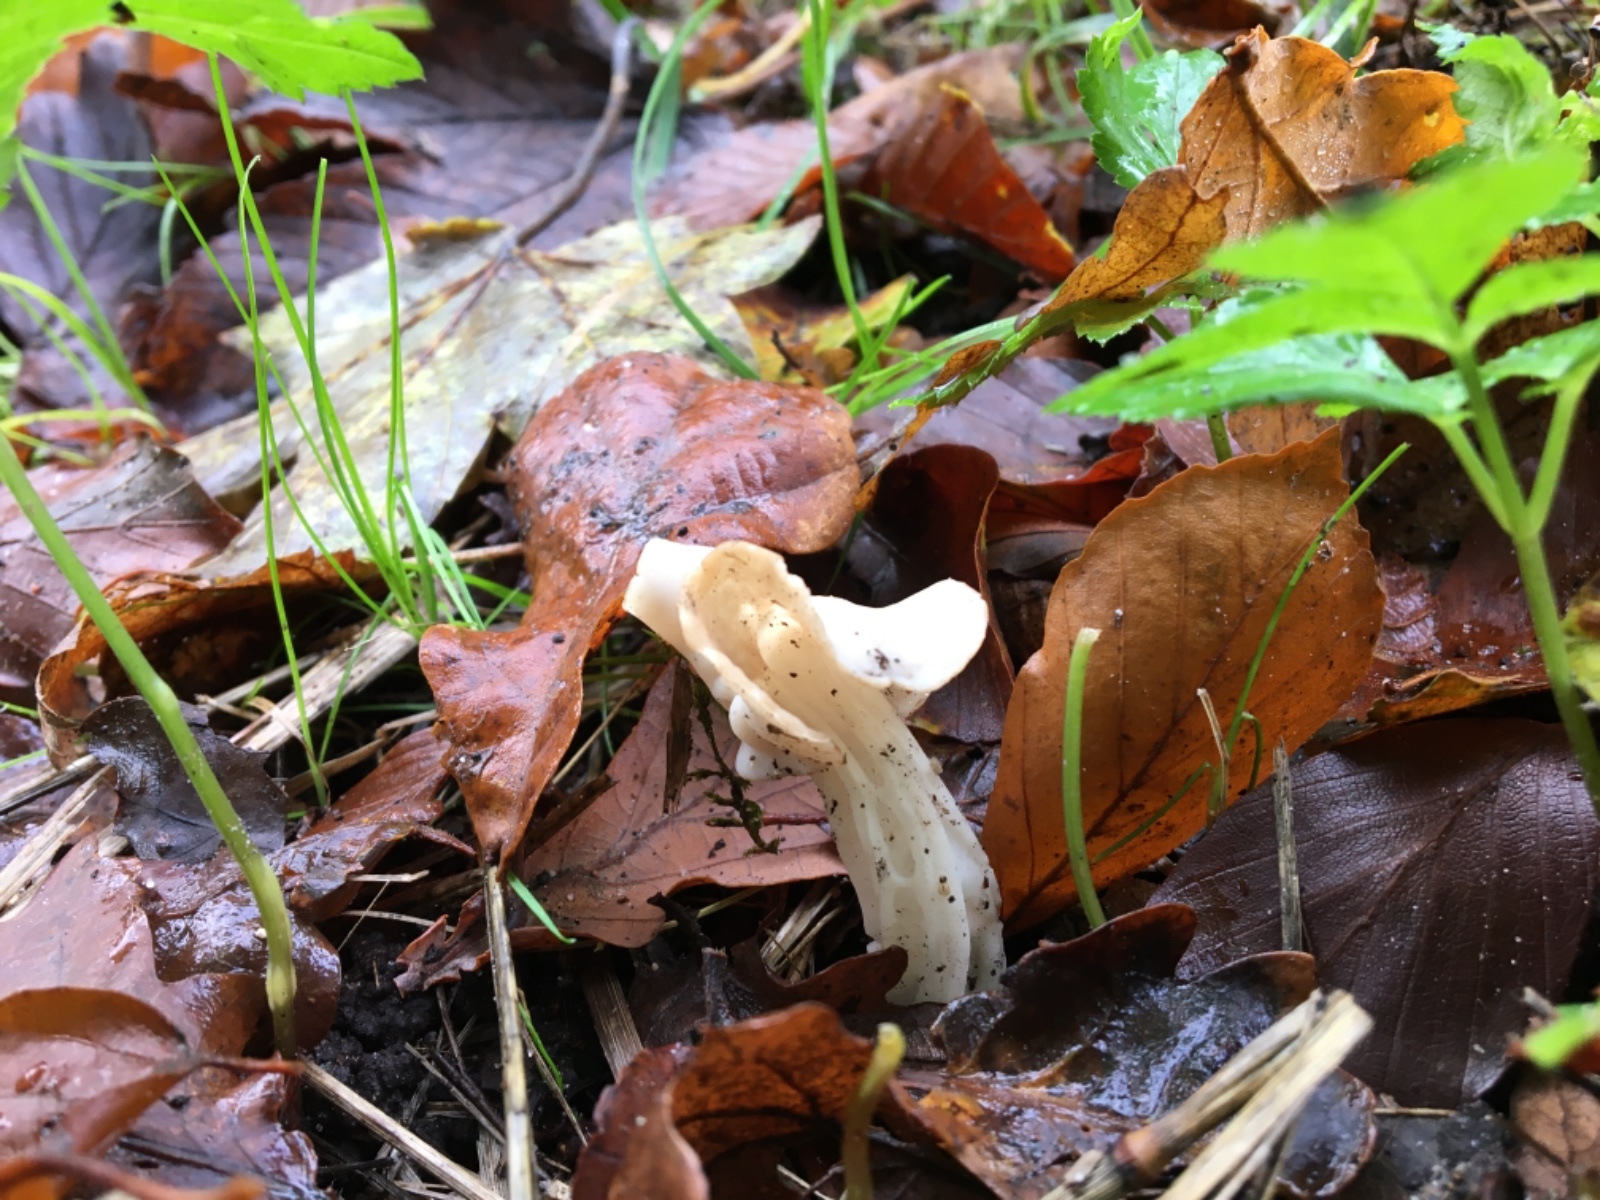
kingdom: Fungi
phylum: Ascomycota
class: Pezizomycetes
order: Pezizales
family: Helvellaceae
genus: Helvella
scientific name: Helvella crispa
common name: kruset foldhat
